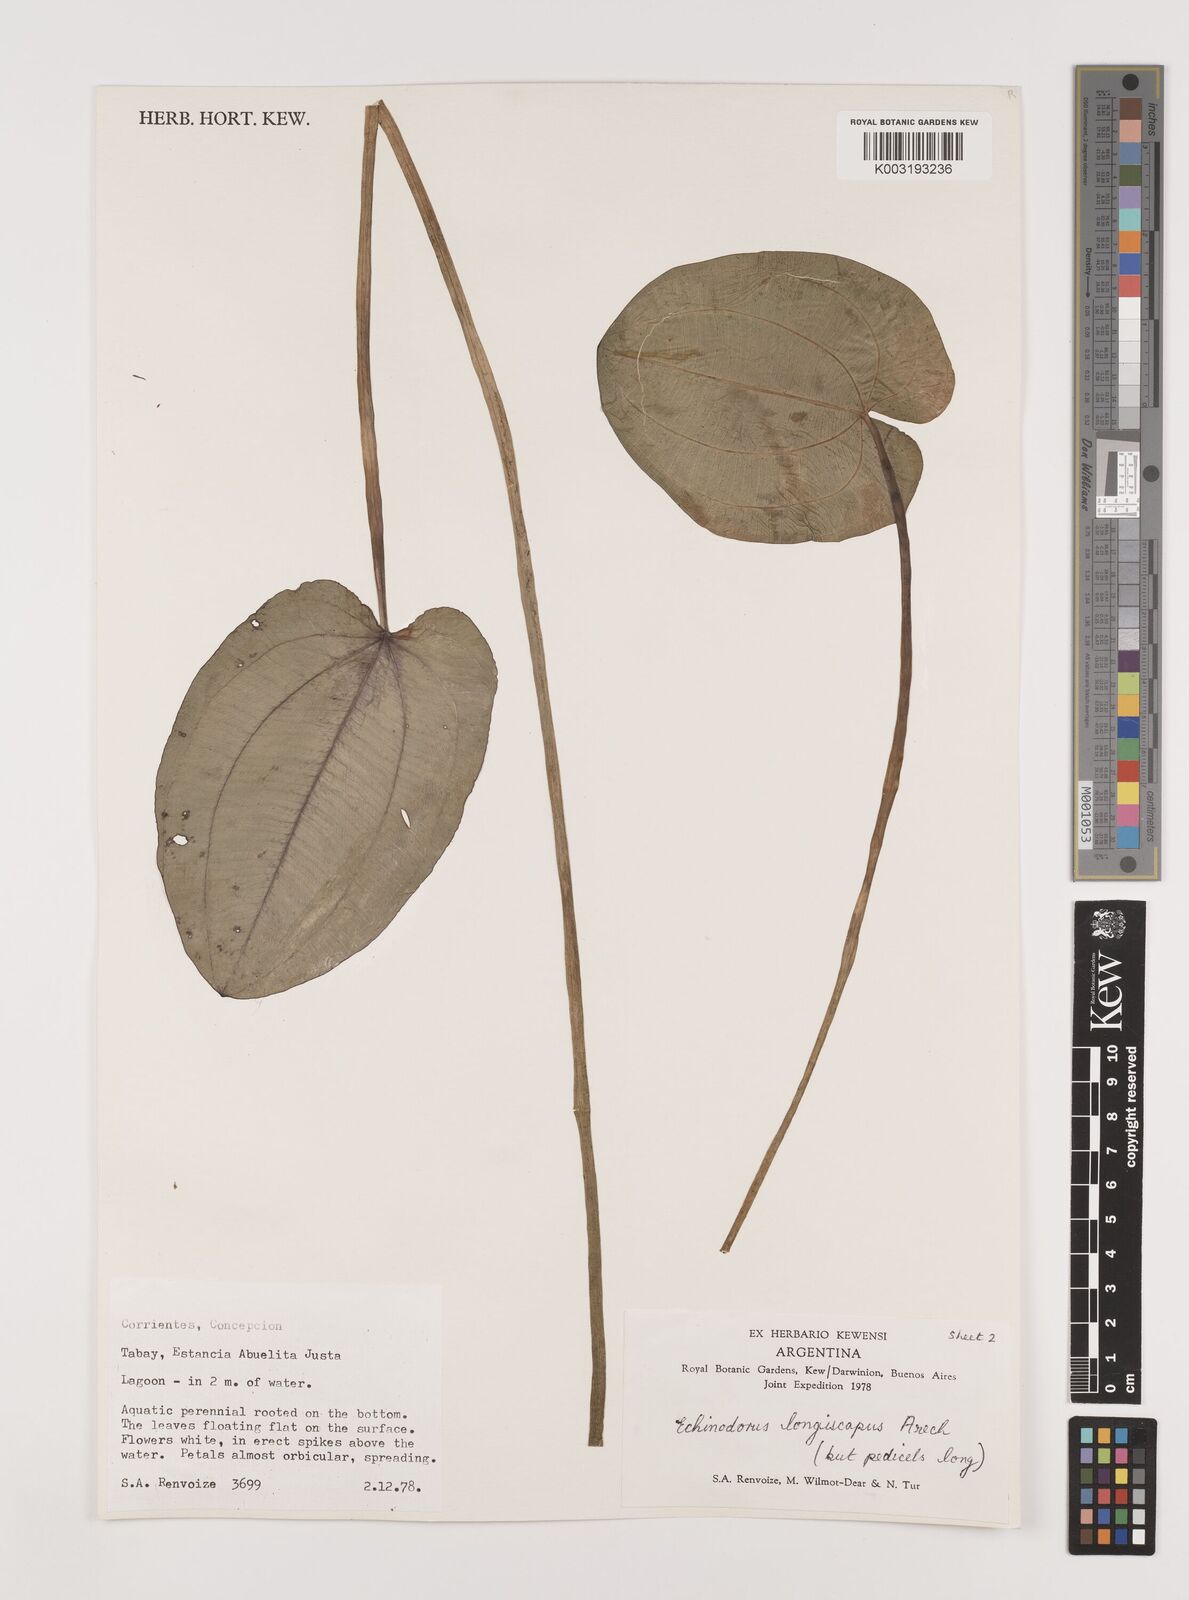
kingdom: Plantae
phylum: Tracheophyta
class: Liliopsida
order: Alismatales
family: Alismataceae
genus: Aquarius
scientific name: Aquarius longiscapus
